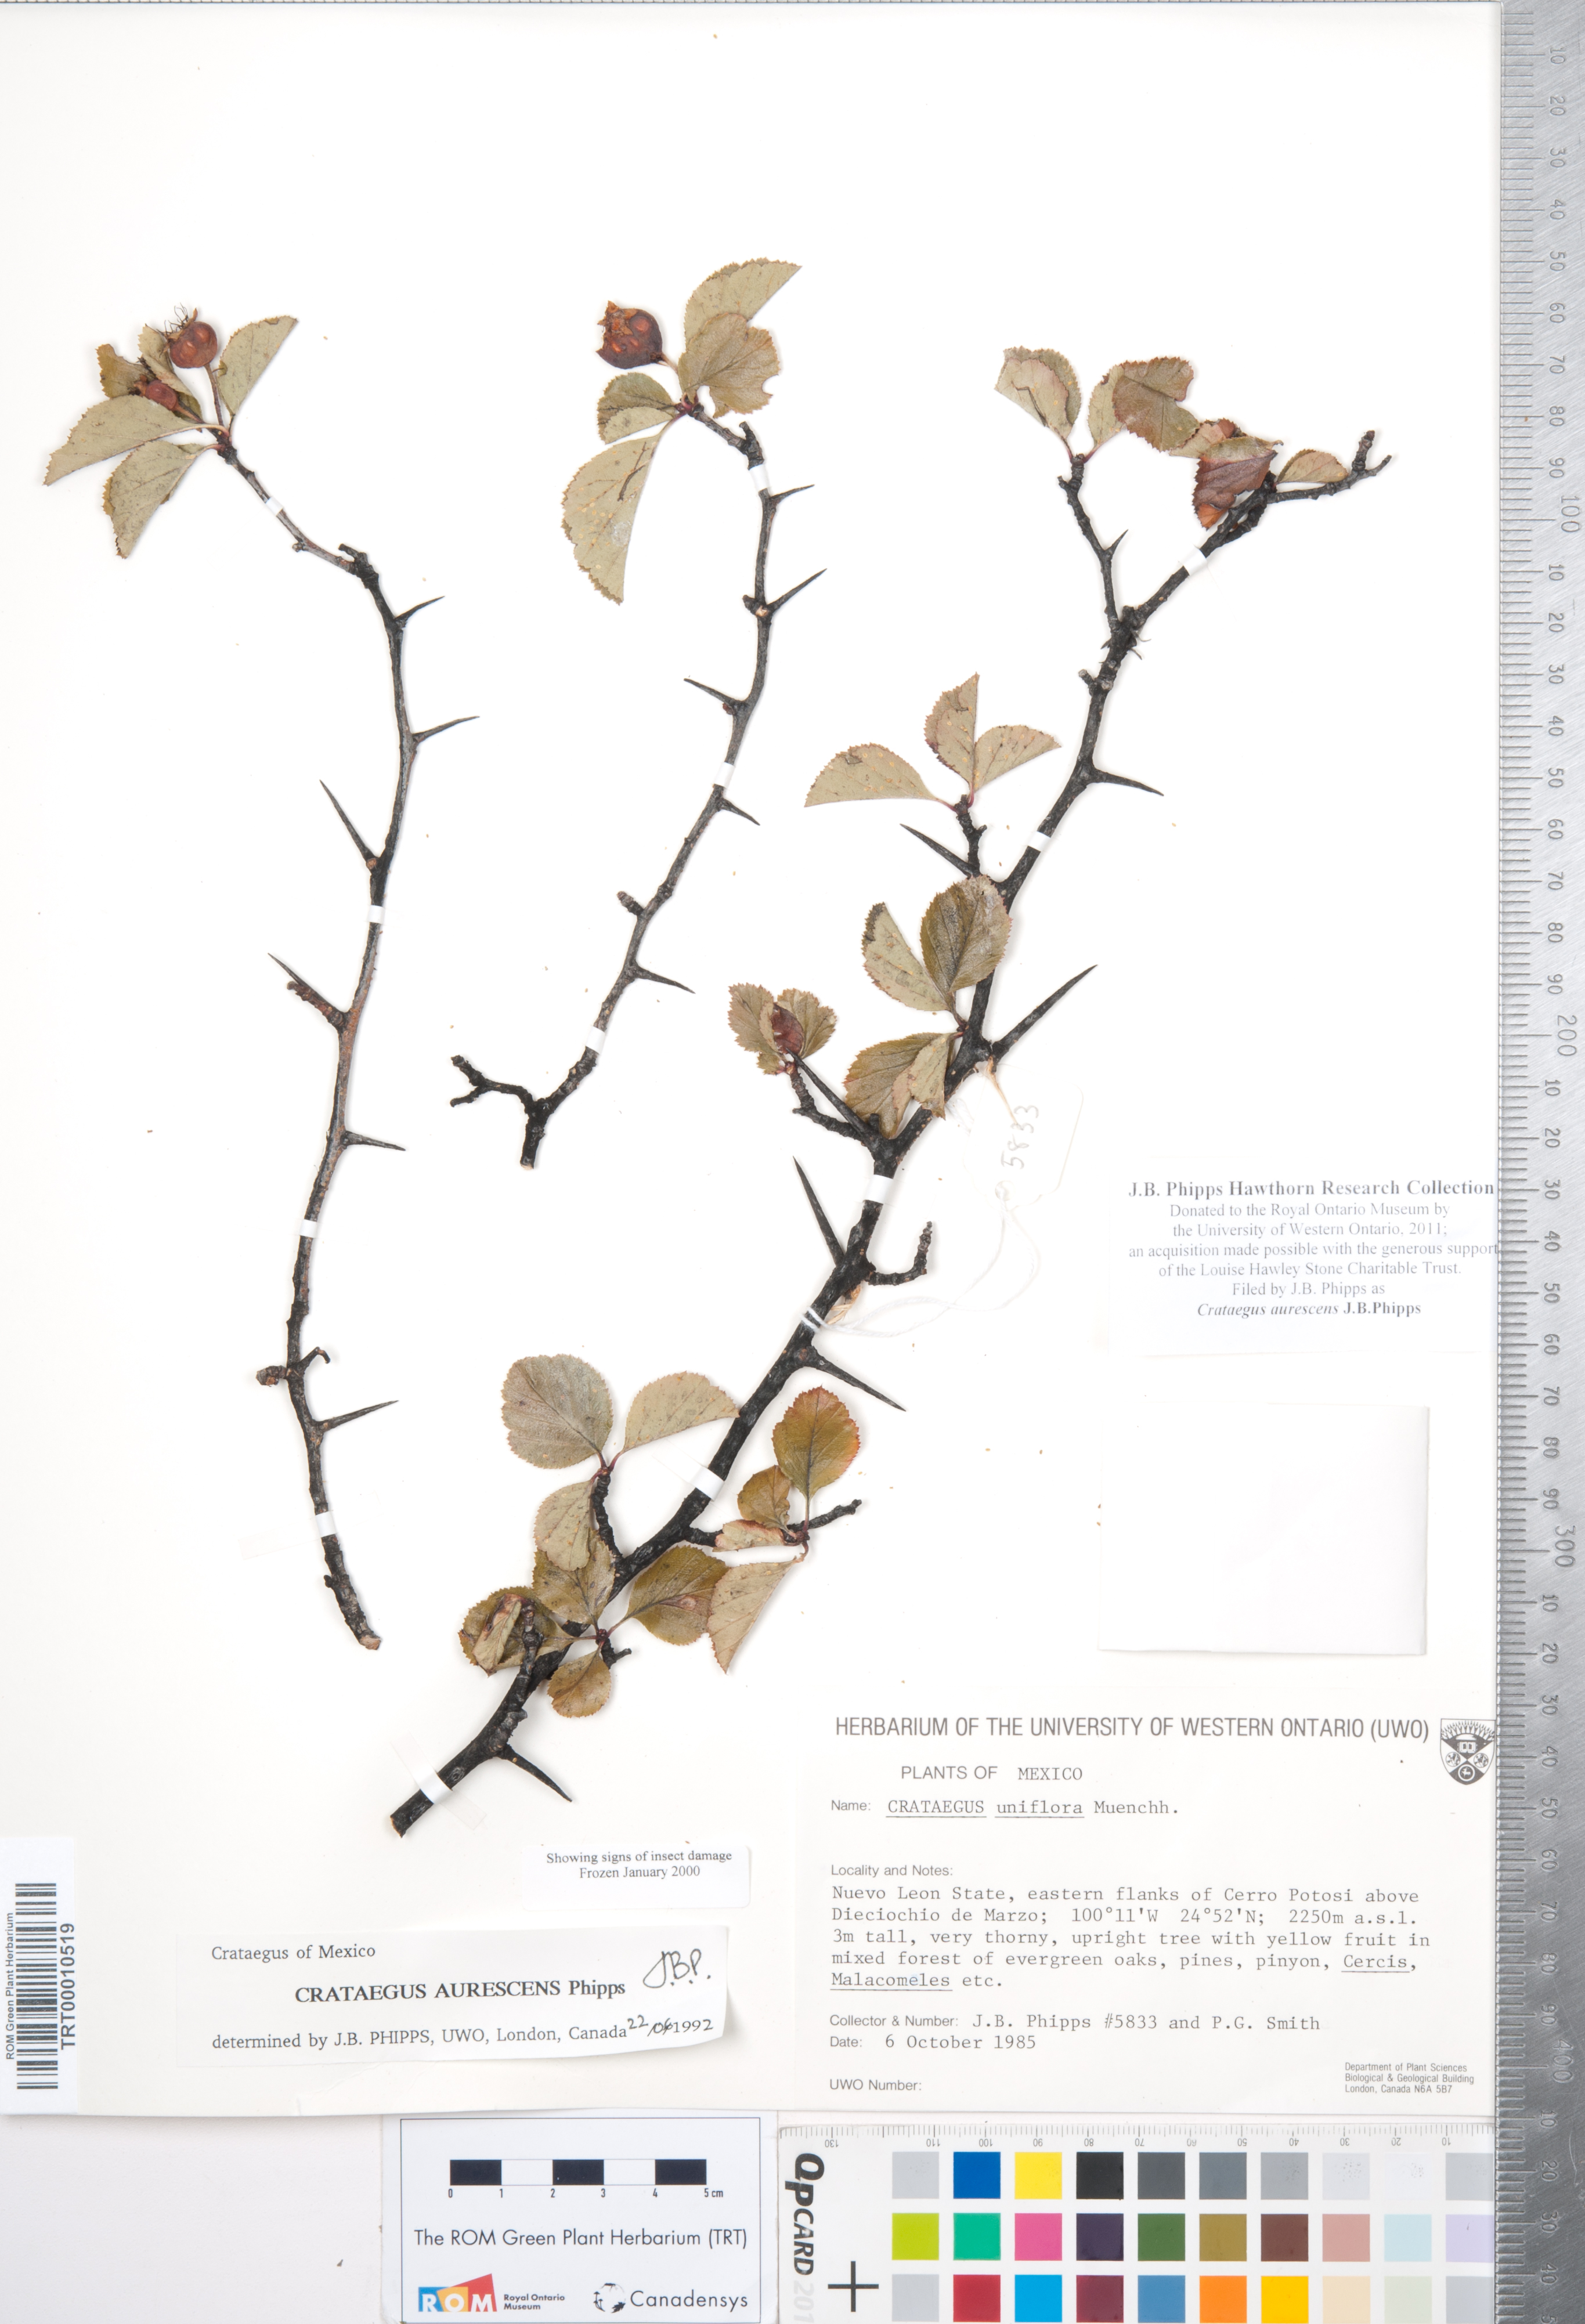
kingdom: Plantae
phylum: Tracheophyta
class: Magnoliopsida
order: Rosales
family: Rosaceae
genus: Crataegus
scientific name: Crataegus aurescens
